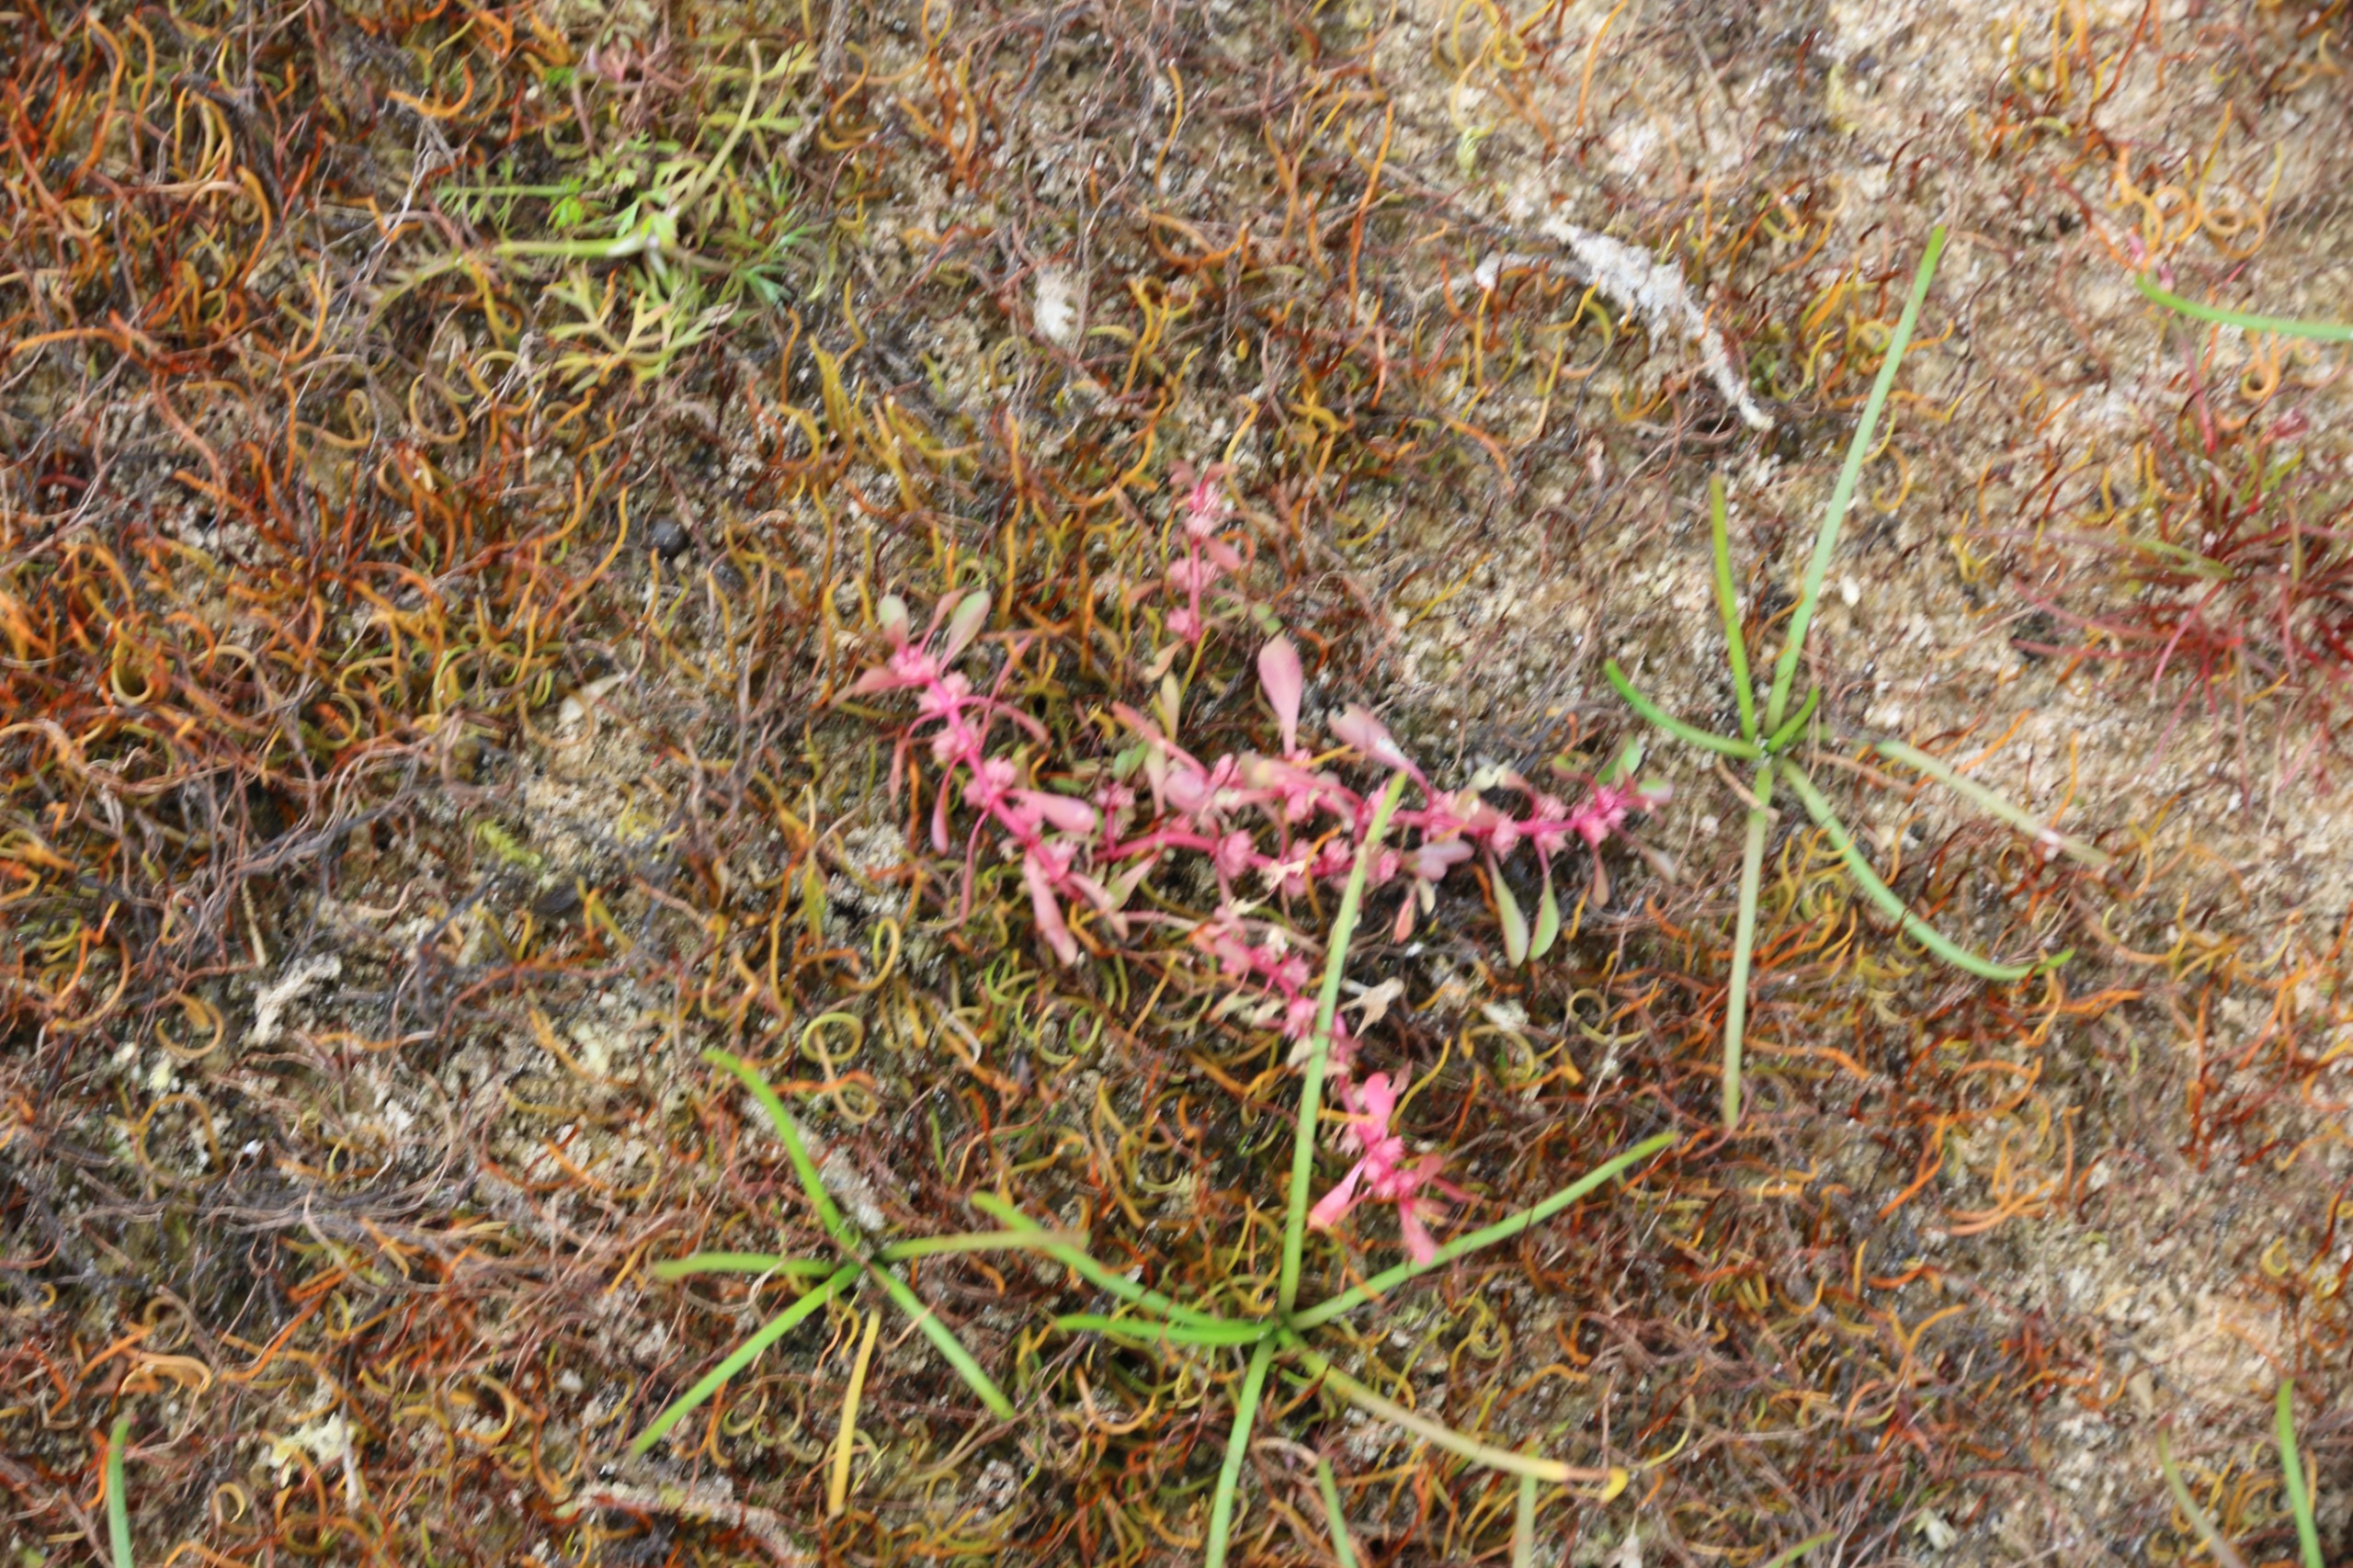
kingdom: Plantae
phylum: Tracheophyta
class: Magnoliopsida
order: Myrtales
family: Lythraceae
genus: Lythrum
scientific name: Lythrum portula
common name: Vandportulak
